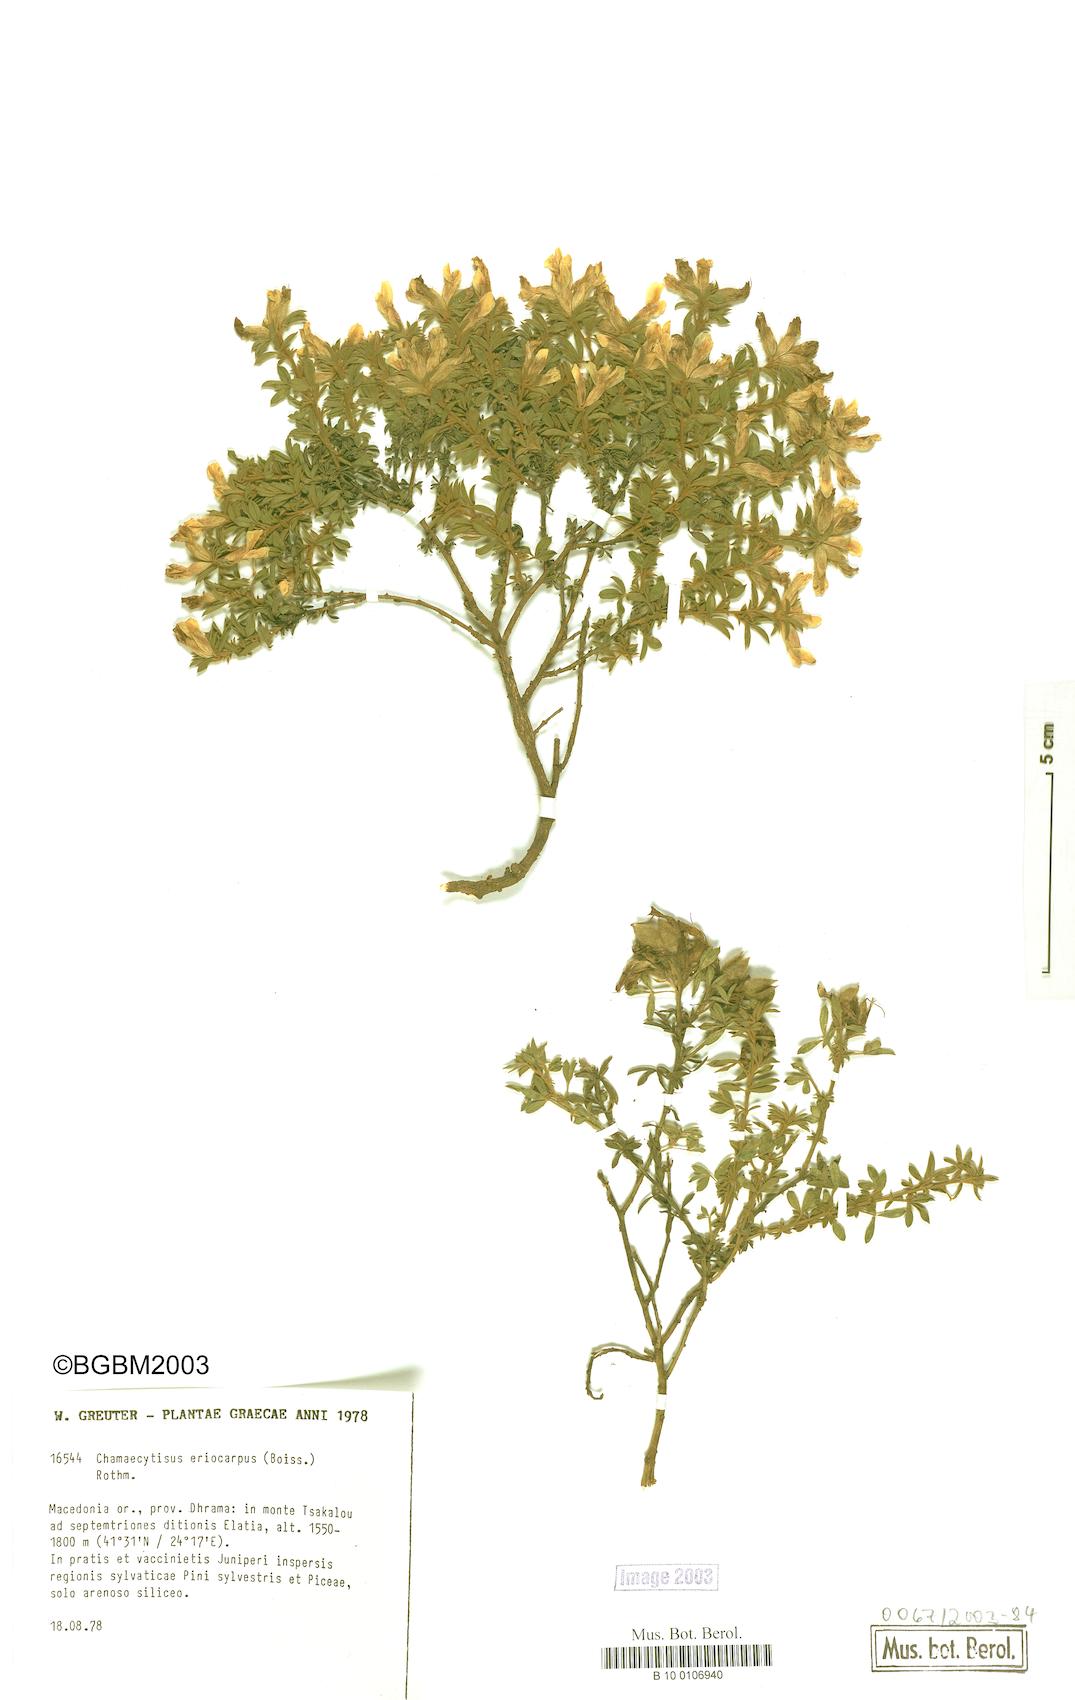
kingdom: Plantae
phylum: Tracheophyta
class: Magnoliopsida
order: Fabales
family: Fabaceae
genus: Chamaecytisus
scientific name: Chamaecytisus eriocarpus
